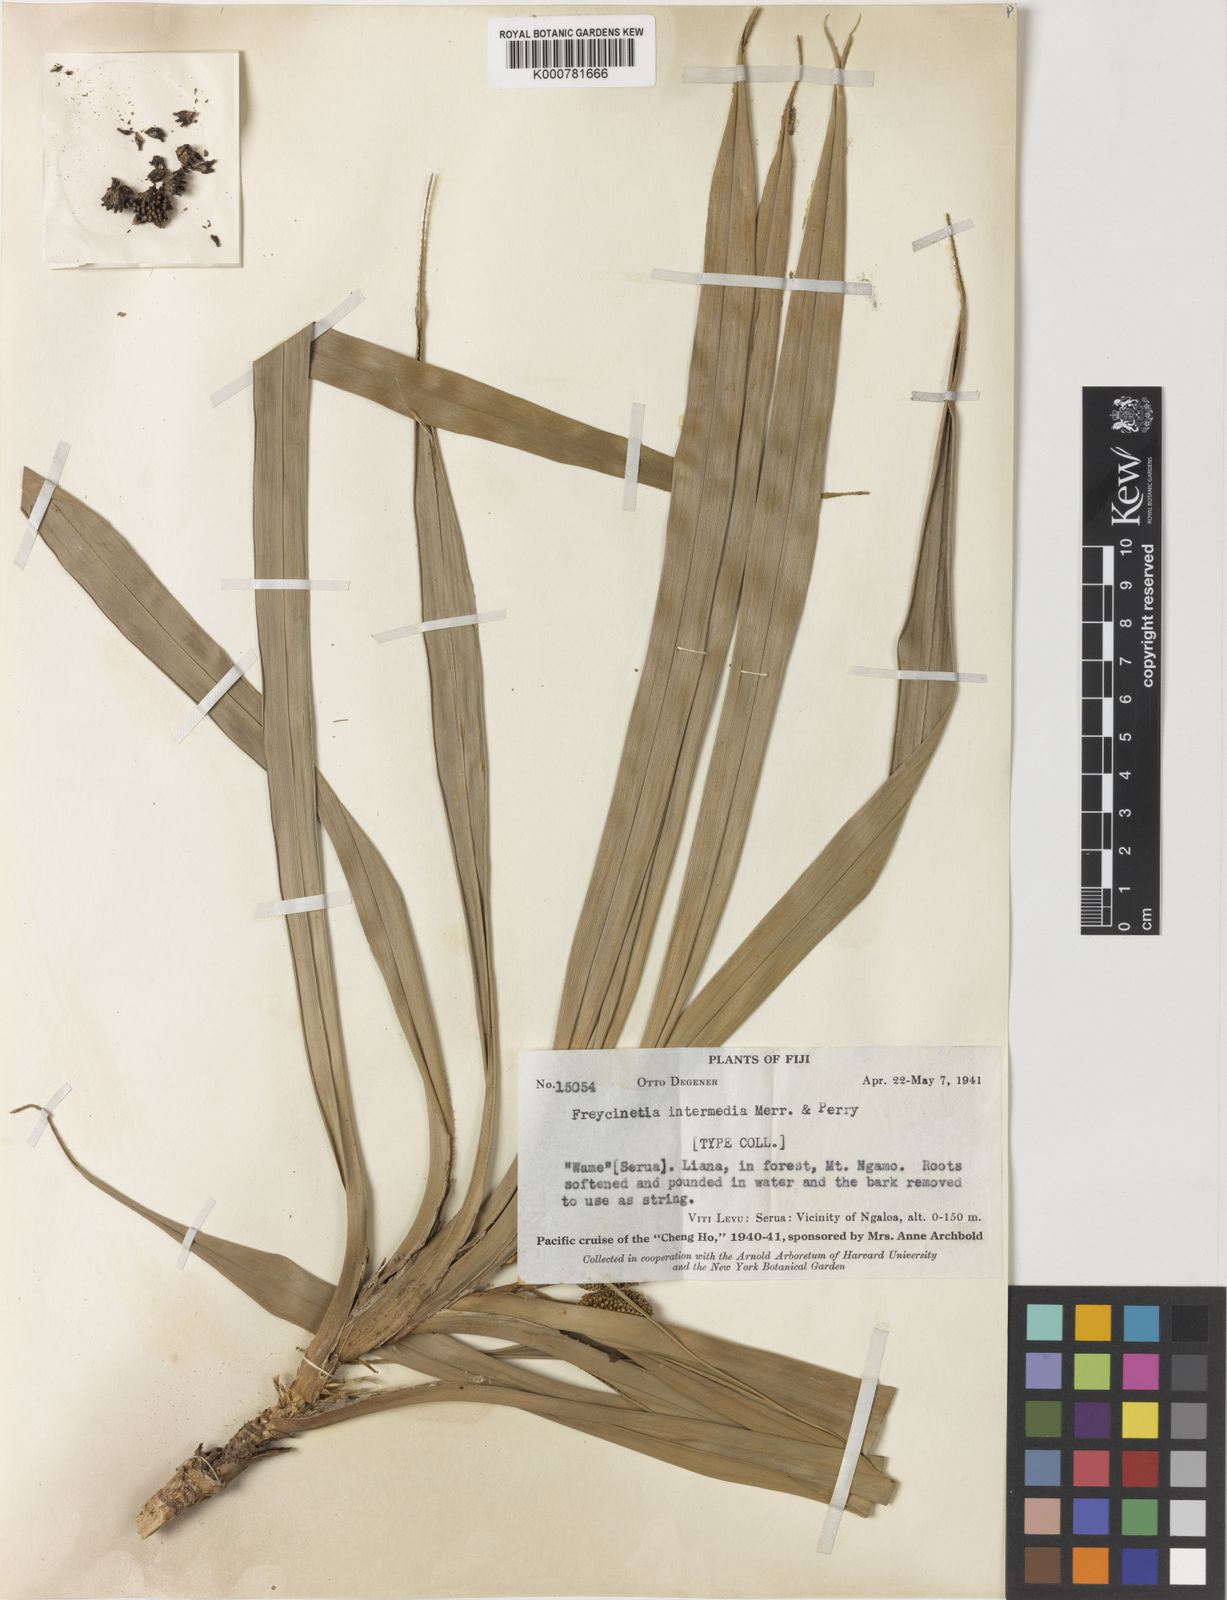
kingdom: Plantae
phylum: Tracheophyta
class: Liliopsida
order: Pandanales
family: Pandanaceae
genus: Freycinetia
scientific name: Freycinetia hombronii
